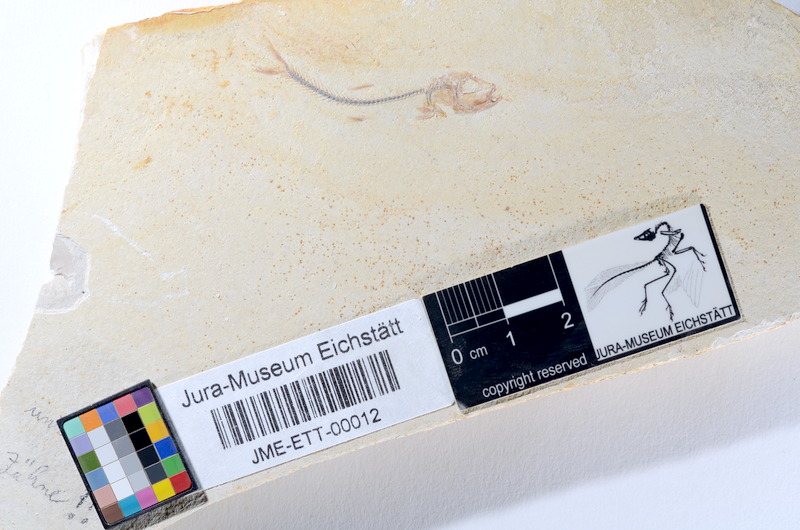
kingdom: Animalia
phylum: Chordata
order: Salmoniformes
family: Orthogonikleithridae
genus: Orthogonikleithrus
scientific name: Orthogonikleithrus hoelli
